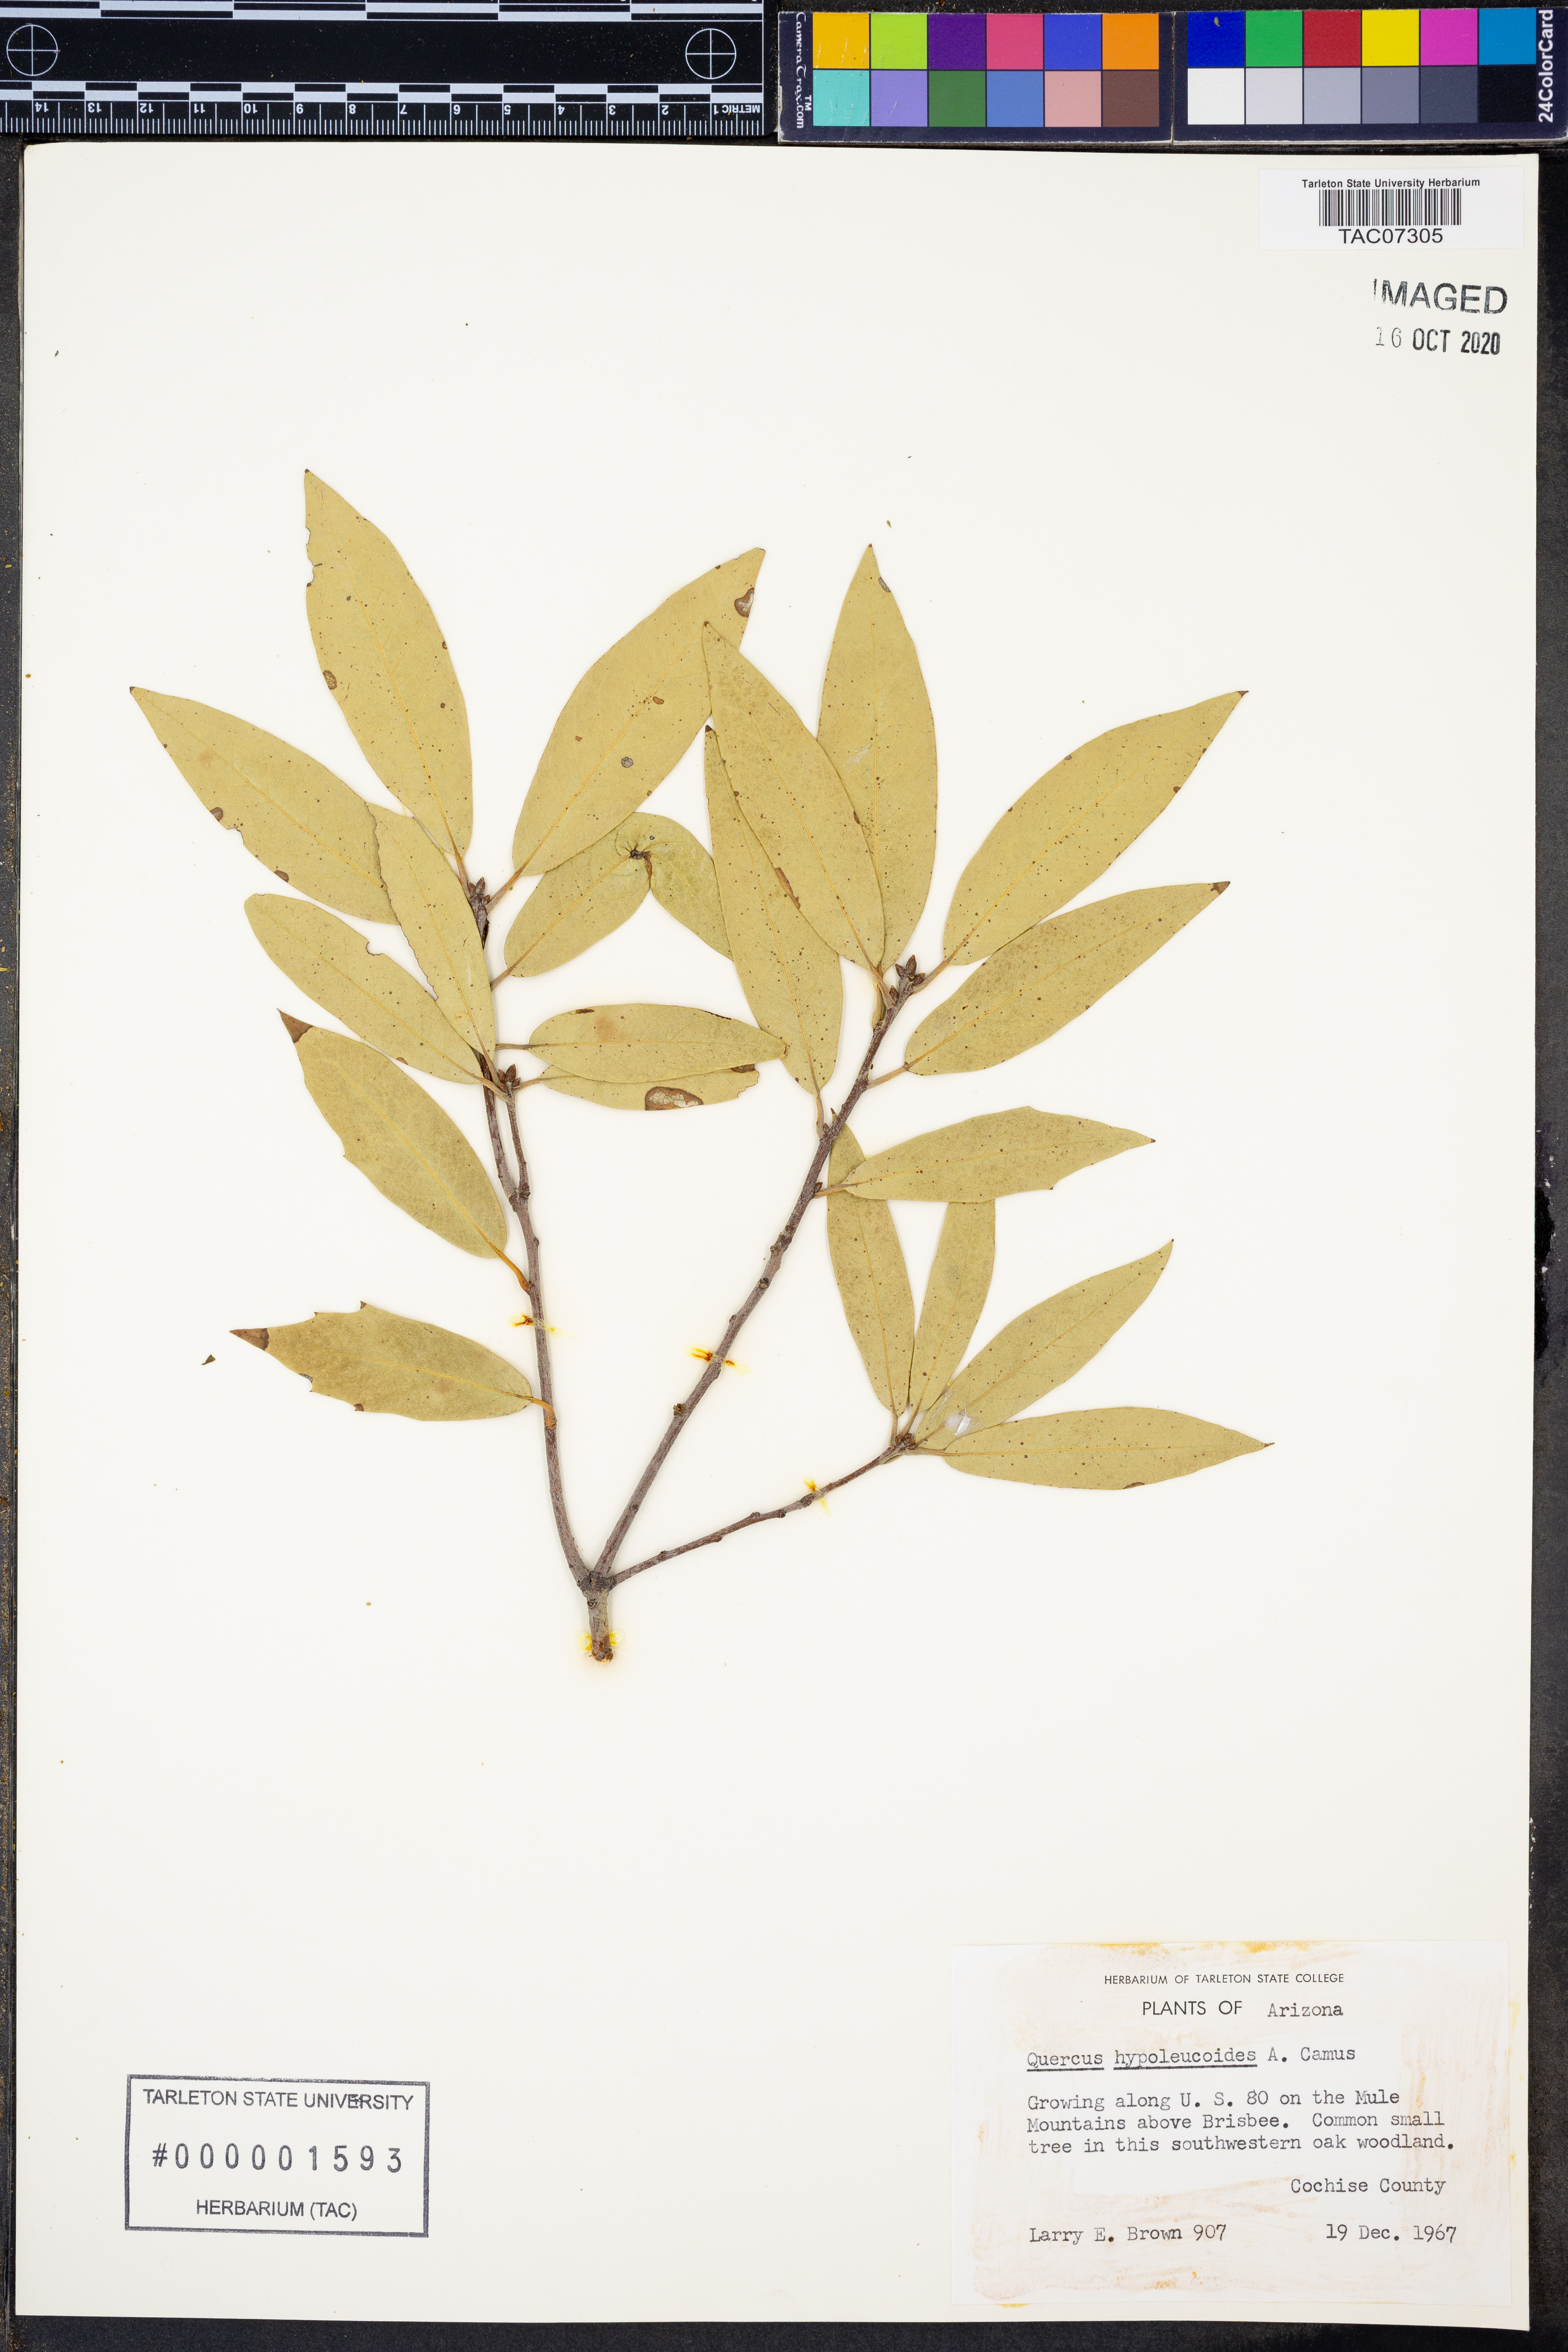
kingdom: Plantae
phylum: Tracheophyta
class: Magnoliopsida
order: Fagales
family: Fagaceae
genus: Quercus
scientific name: Quercus hypoleucoides
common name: Silverleaf oak
